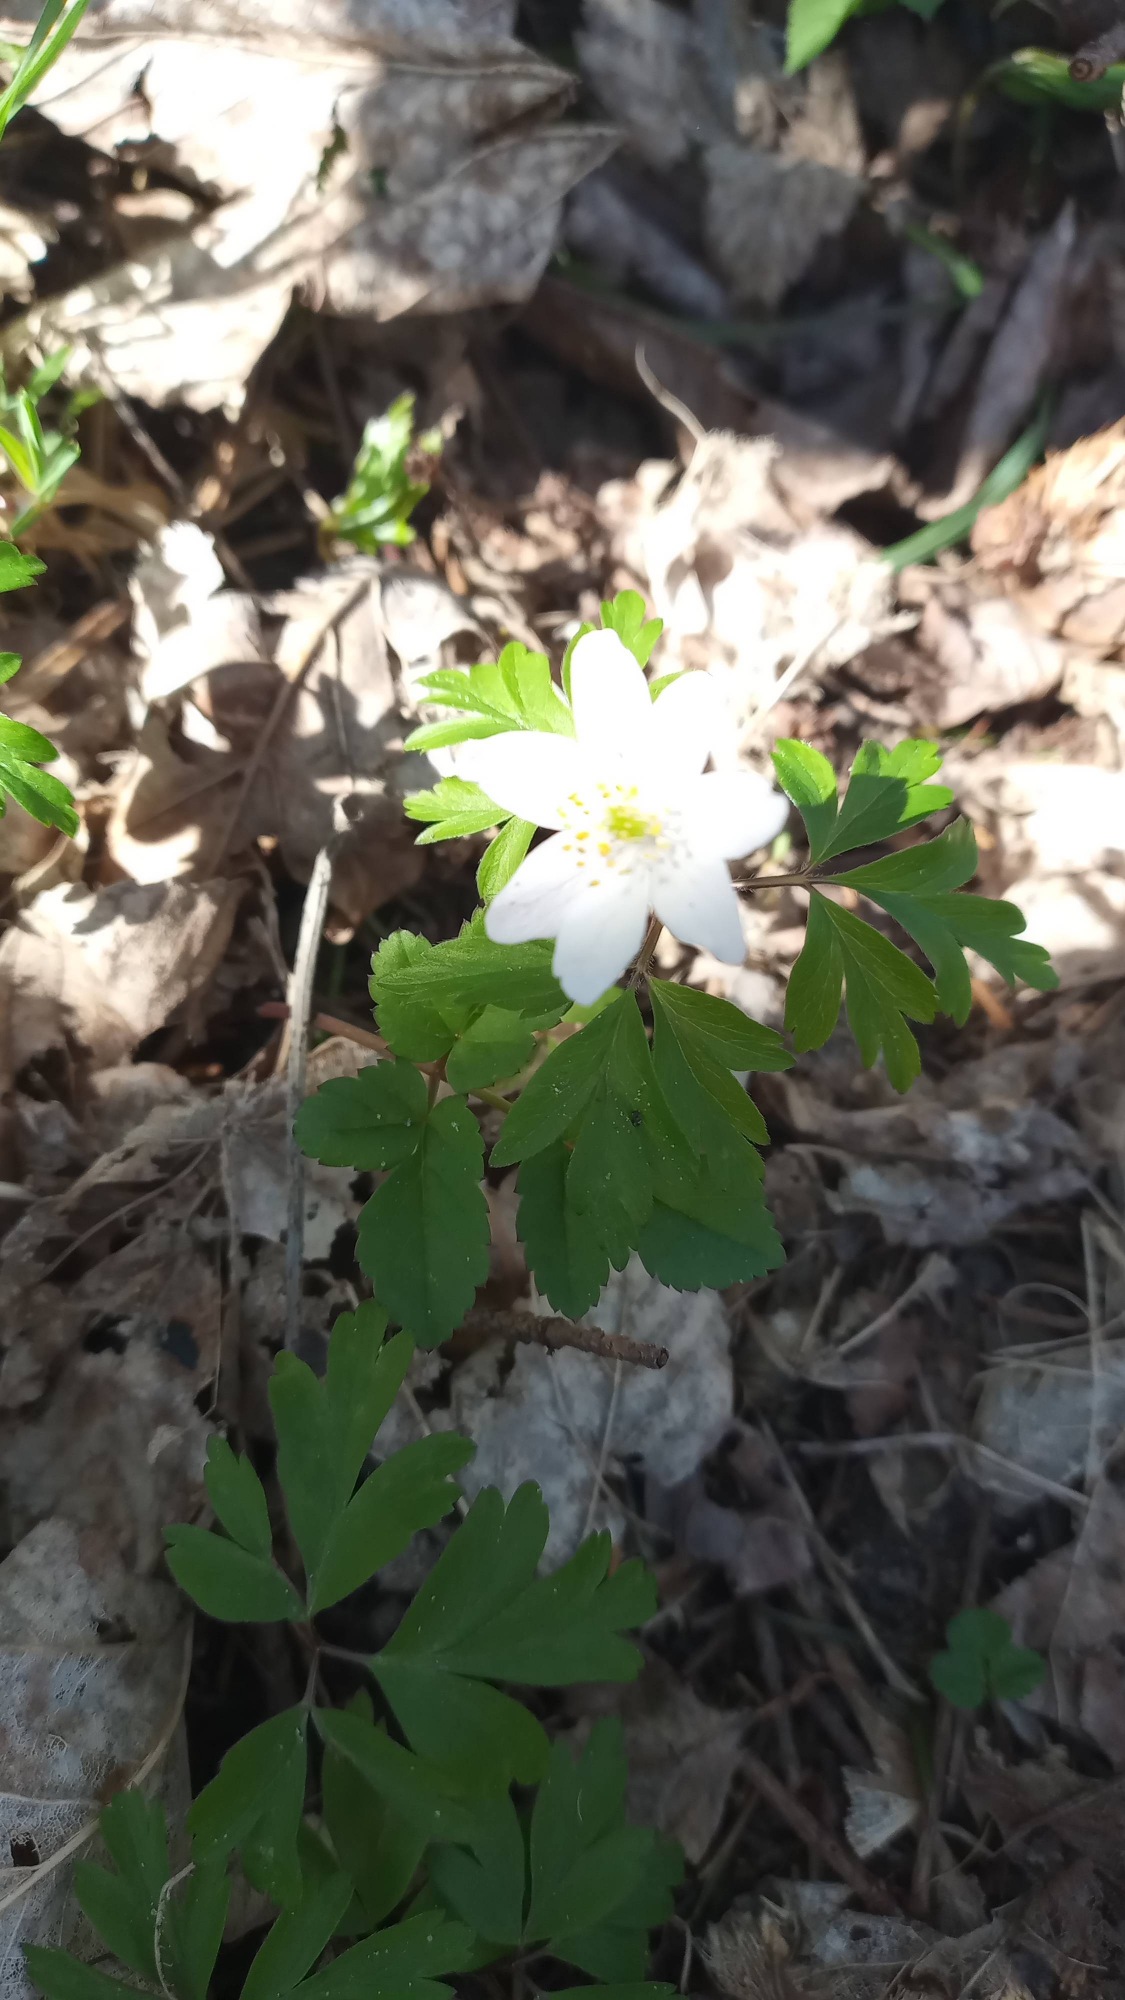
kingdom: Plantae
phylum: Tracheophyta
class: Magnoliopsida
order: Ranunculales
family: Ranunculaceae
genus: Anemone
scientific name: Anemone nemorosa
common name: Hvid anemone
